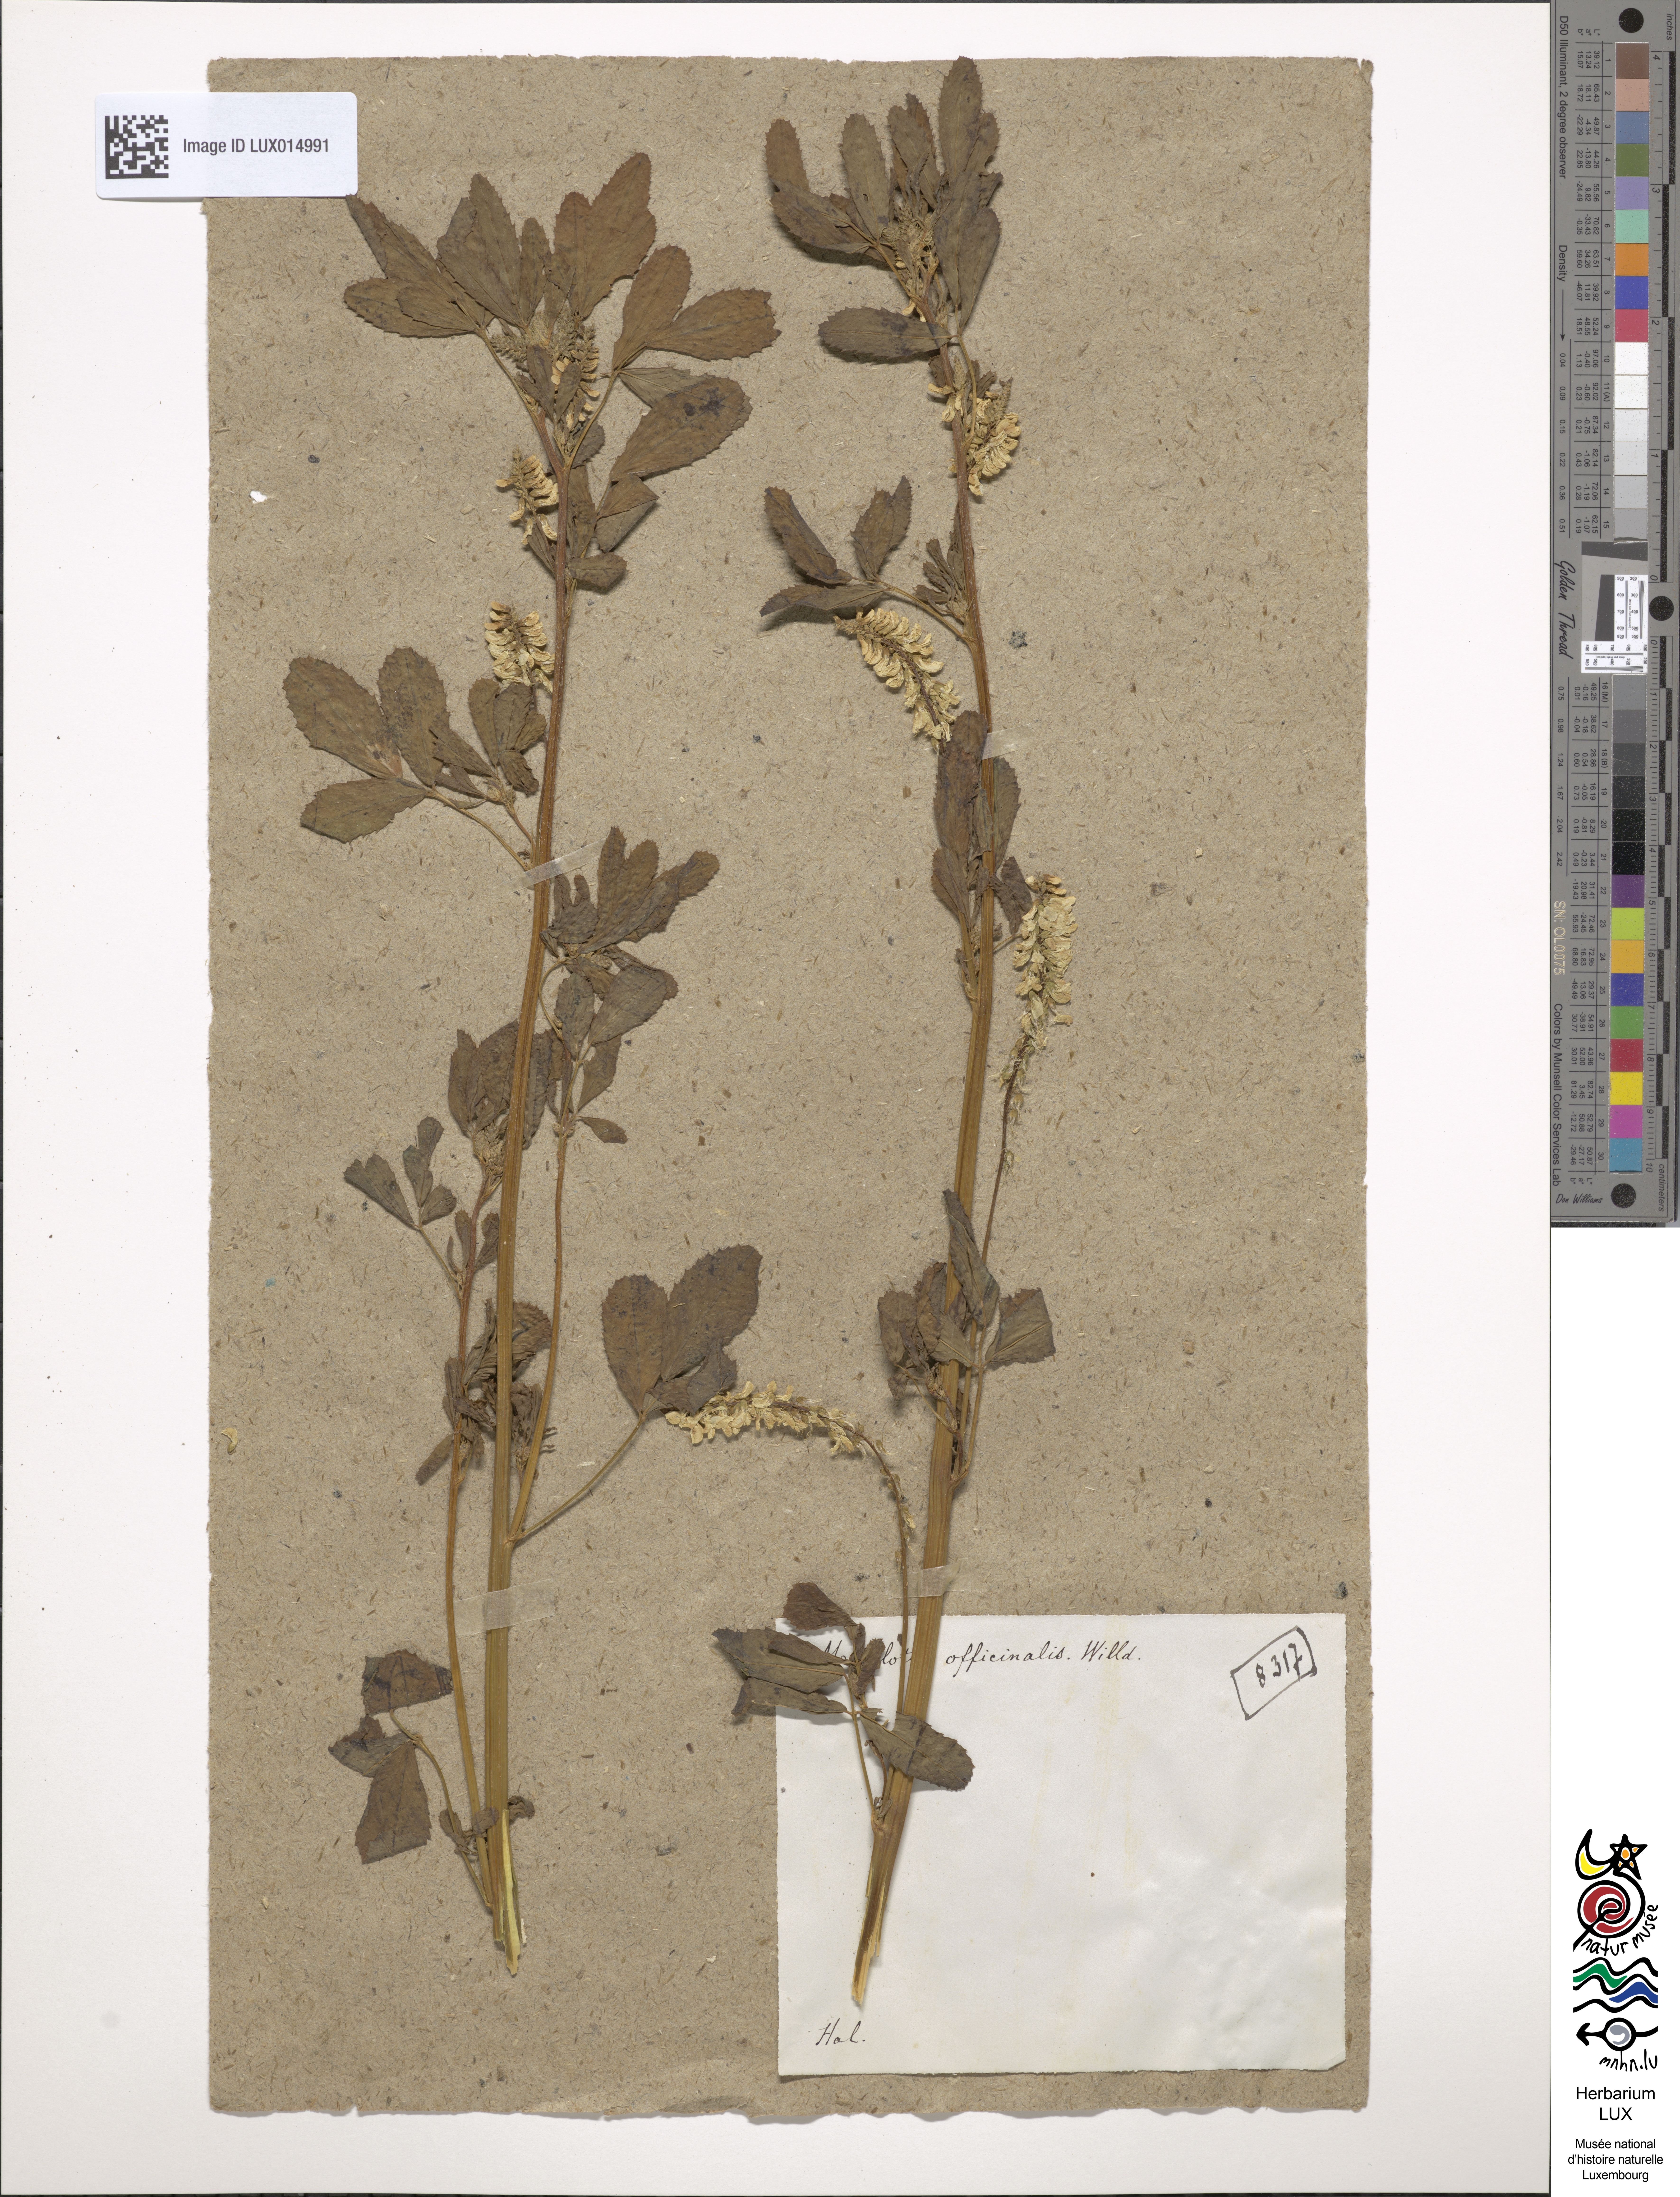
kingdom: Plantae
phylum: Tracheophyta
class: Magnoliopsida
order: Fabales
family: Fabaceae
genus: Melilotus
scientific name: Melilotus officinalis
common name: Sweetclover
